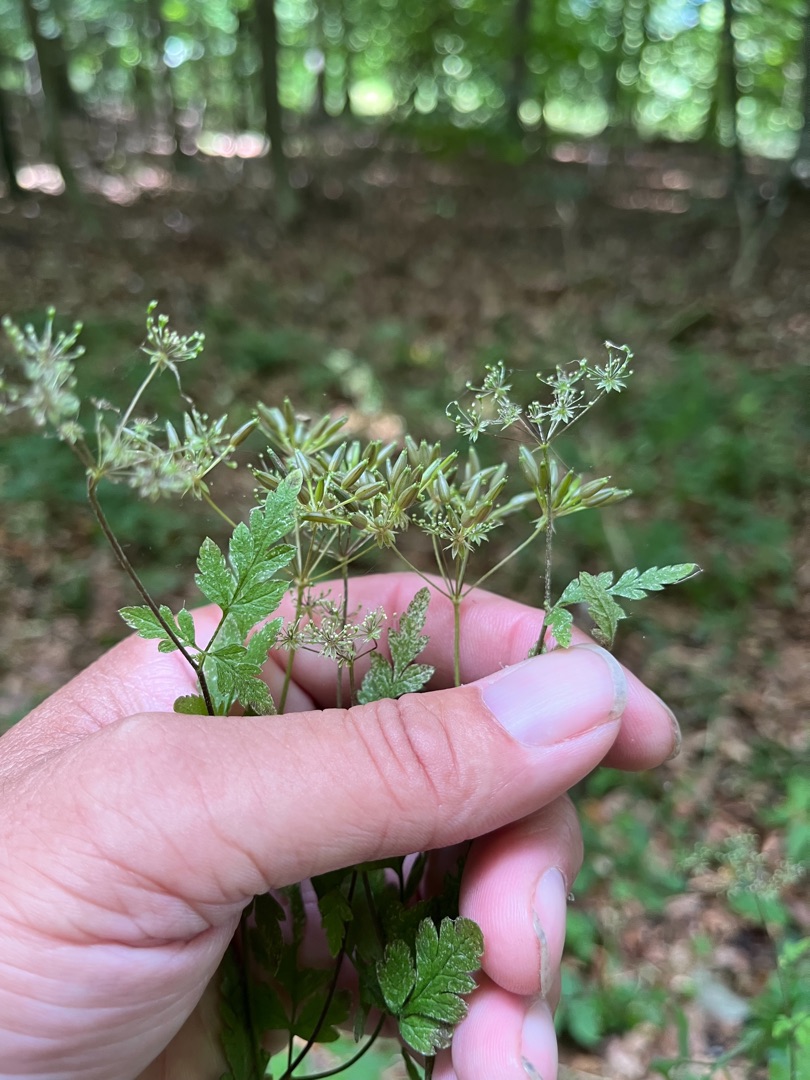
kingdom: Plantae
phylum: Tracheophyta
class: Magnoliopsida
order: Apiales
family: Apiaceae
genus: Chaerophyllum
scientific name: Chaerophyllum temulum
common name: Almindelig hulsvøb
